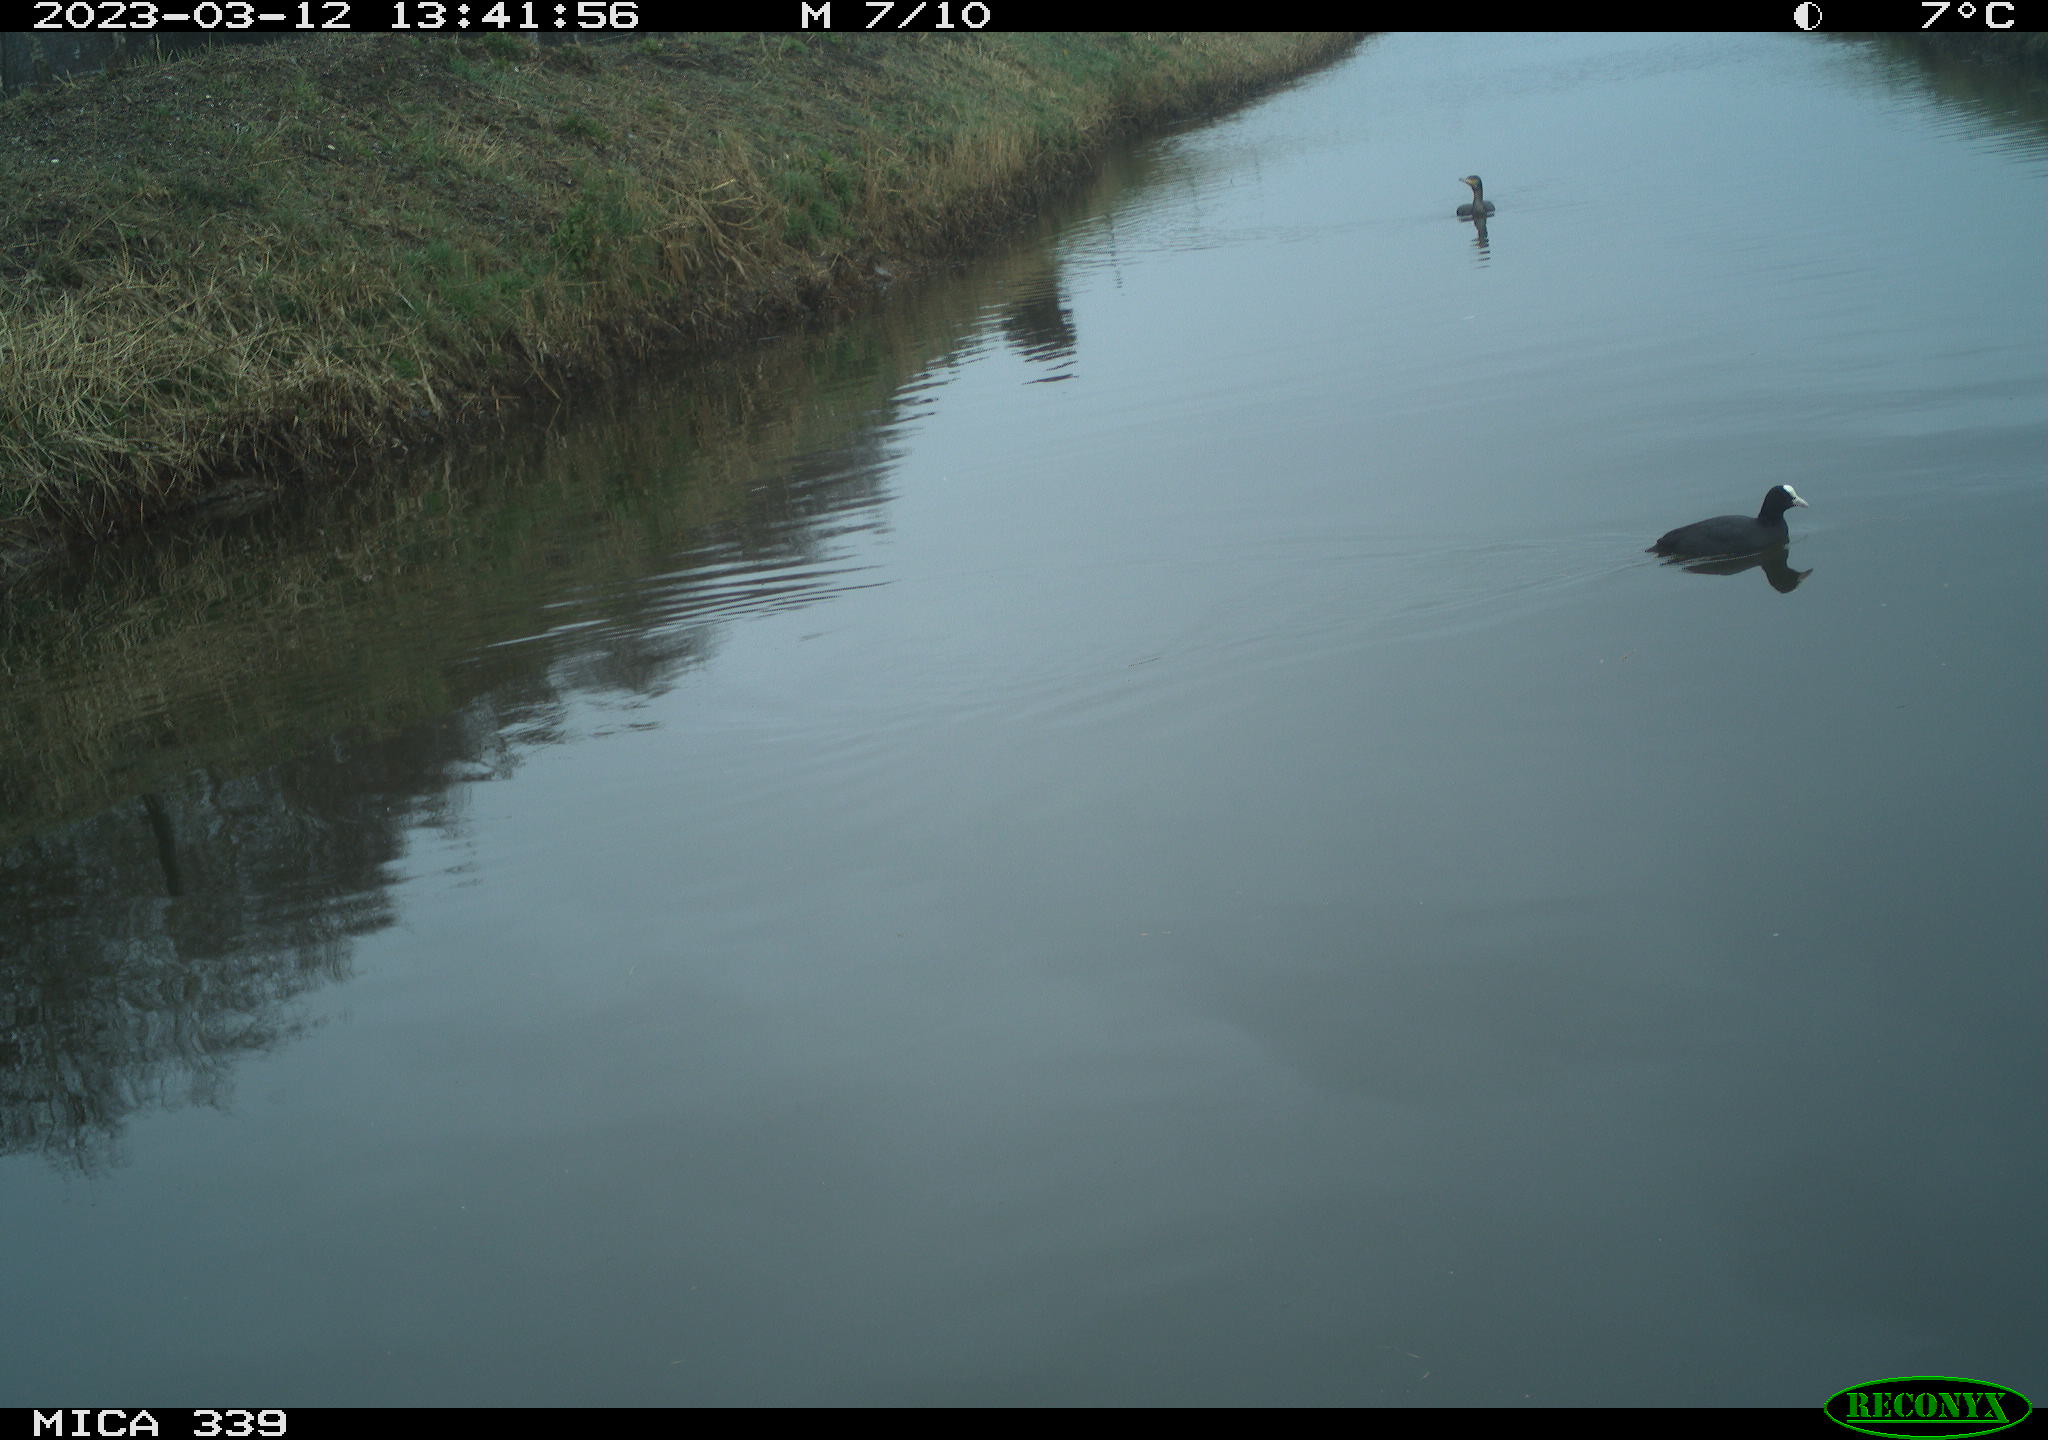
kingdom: Animalia
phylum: Chordata
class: Aves
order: Gruiformes
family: Rallidae
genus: Fulica
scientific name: Fulica atra
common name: Eurasian coot
